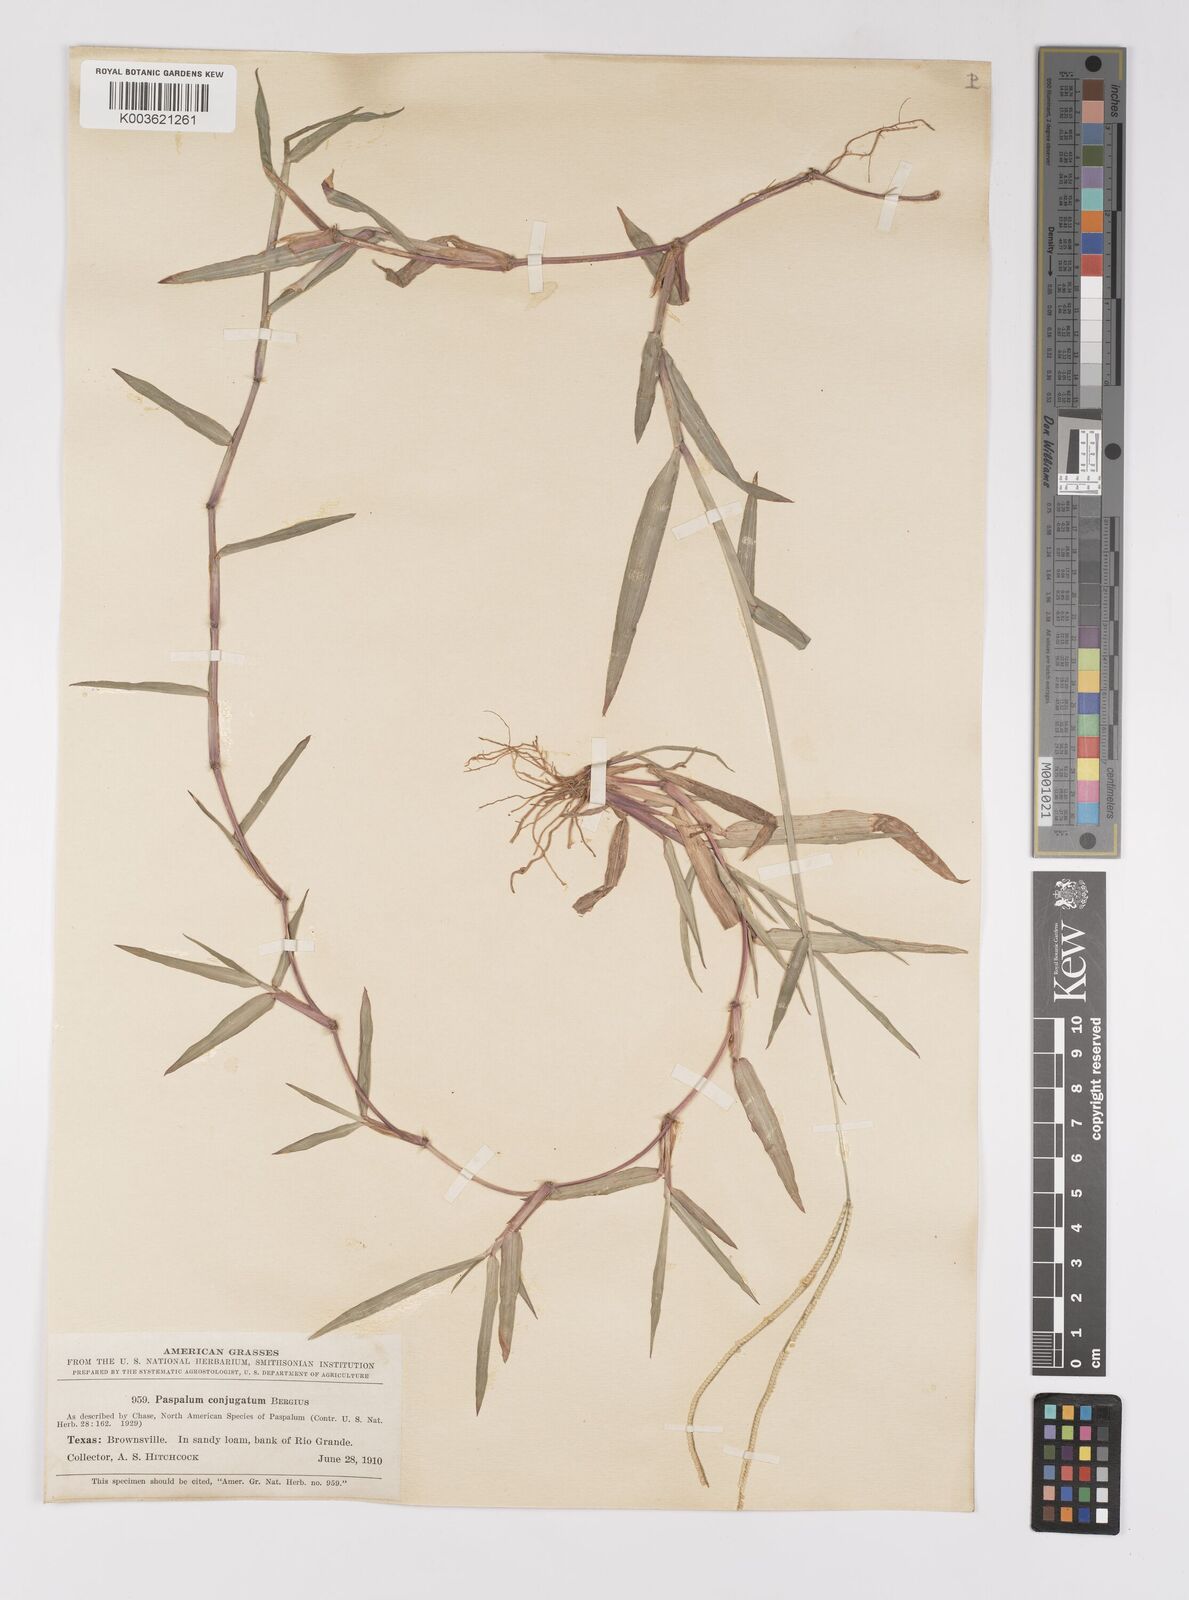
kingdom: Plantae
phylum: Tracheophyta
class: Liliopsida
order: Poales
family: Poaceae
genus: Paspalum
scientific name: Paspalum conjugatum
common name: Hilograss
